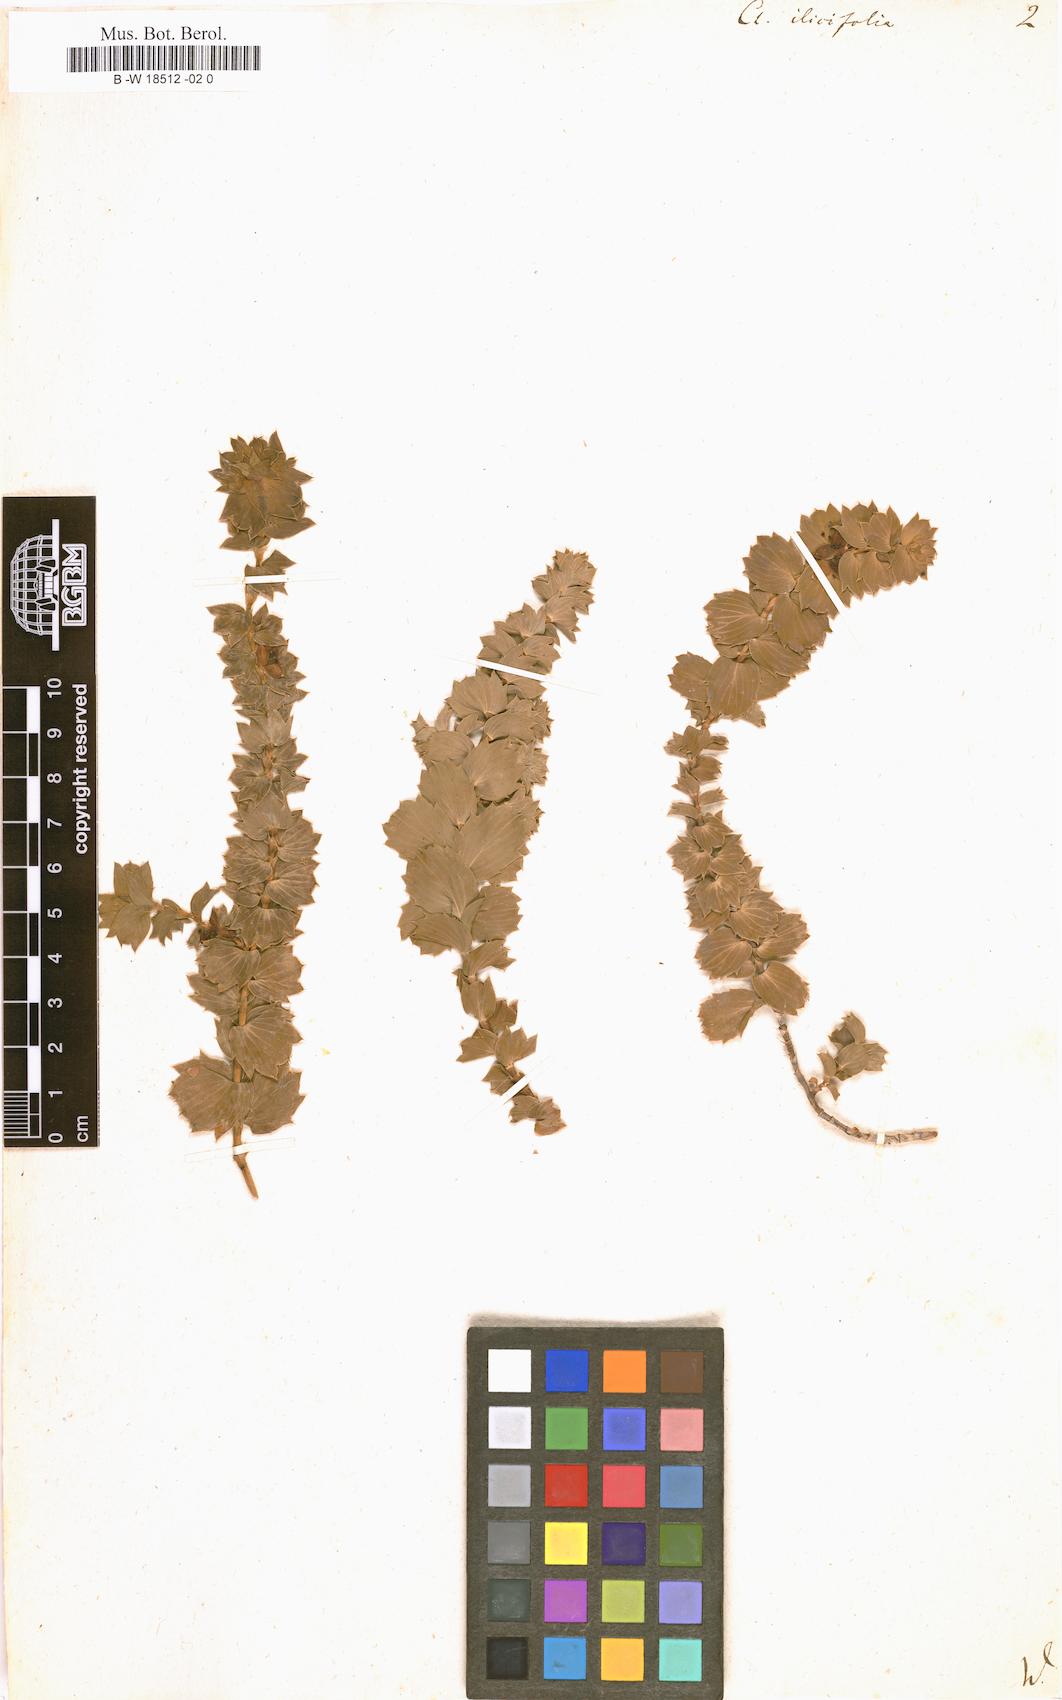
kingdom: Plantae
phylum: Tracheophyta
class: Magnoliopsida
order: Rosales
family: Rosaceae
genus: Cliffortia
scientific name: Cliffortia ilicifolia
